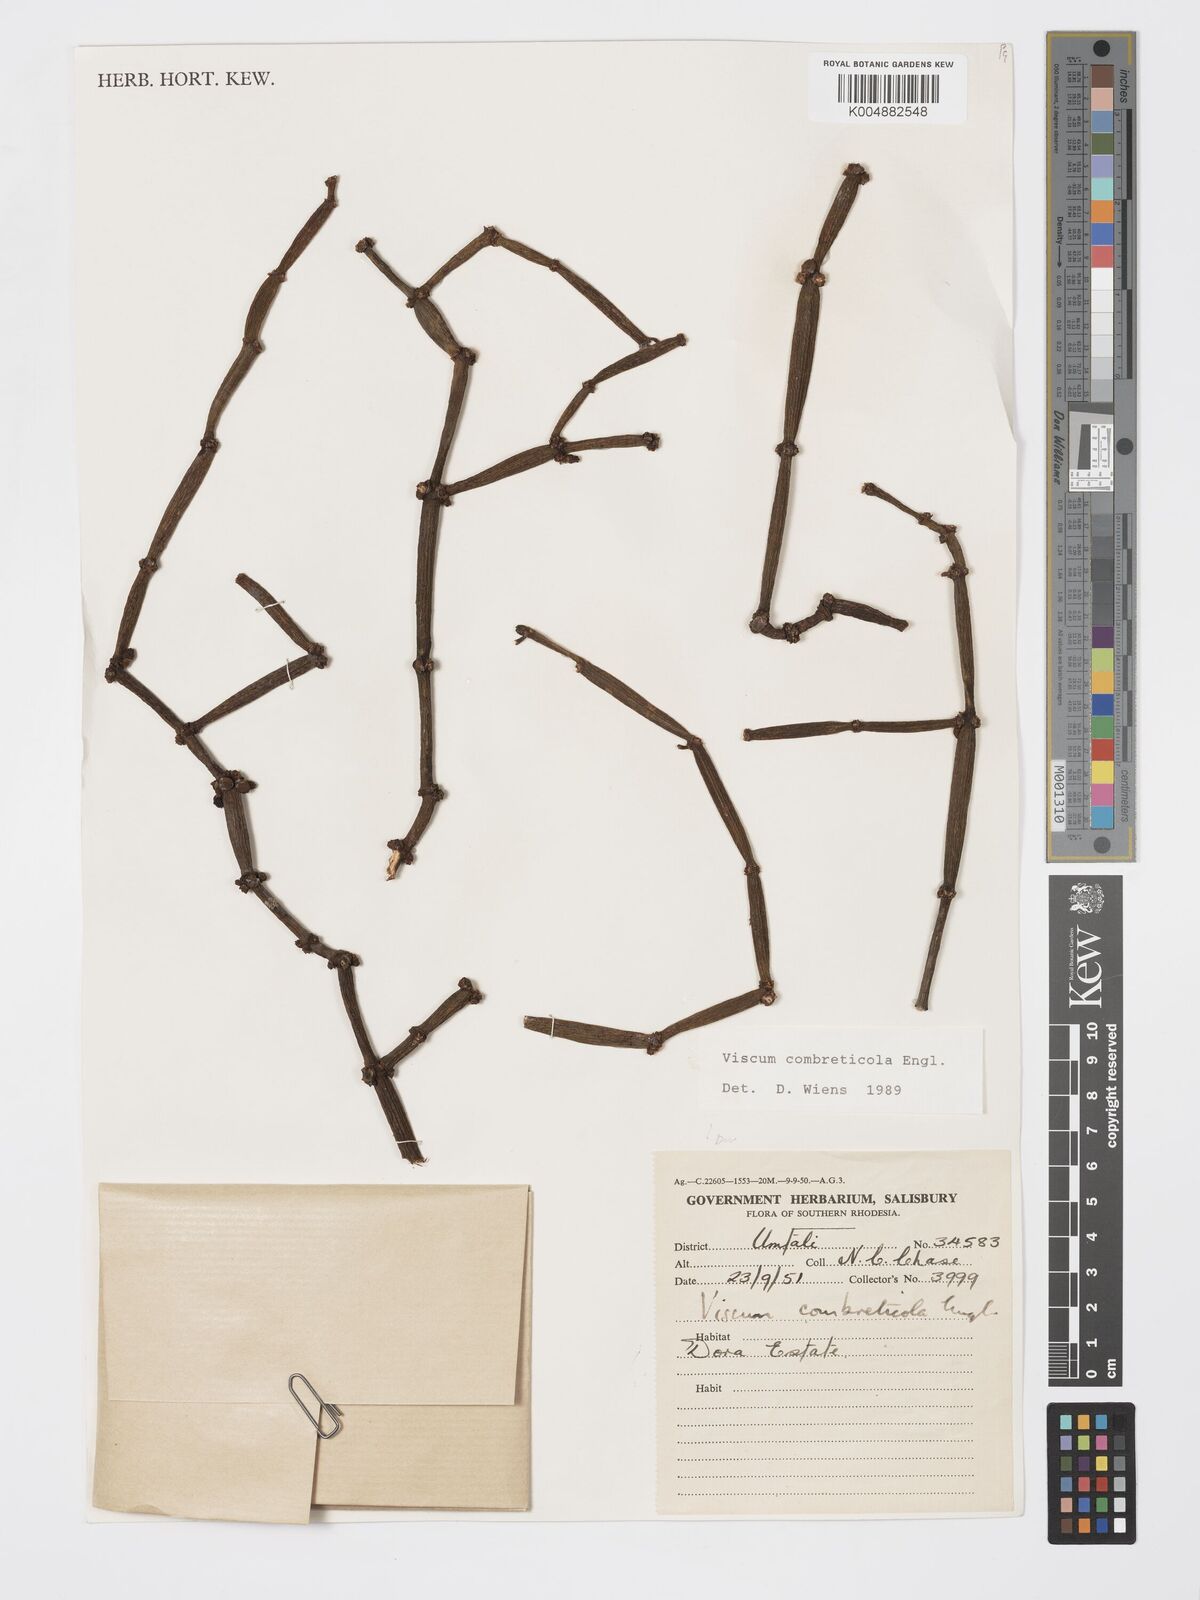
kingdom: Plantae
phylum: Tracheophyta
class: Magnoliopsida
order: Santalales
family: Viscaceae
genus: Viscum
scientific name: Viscum combreticola
